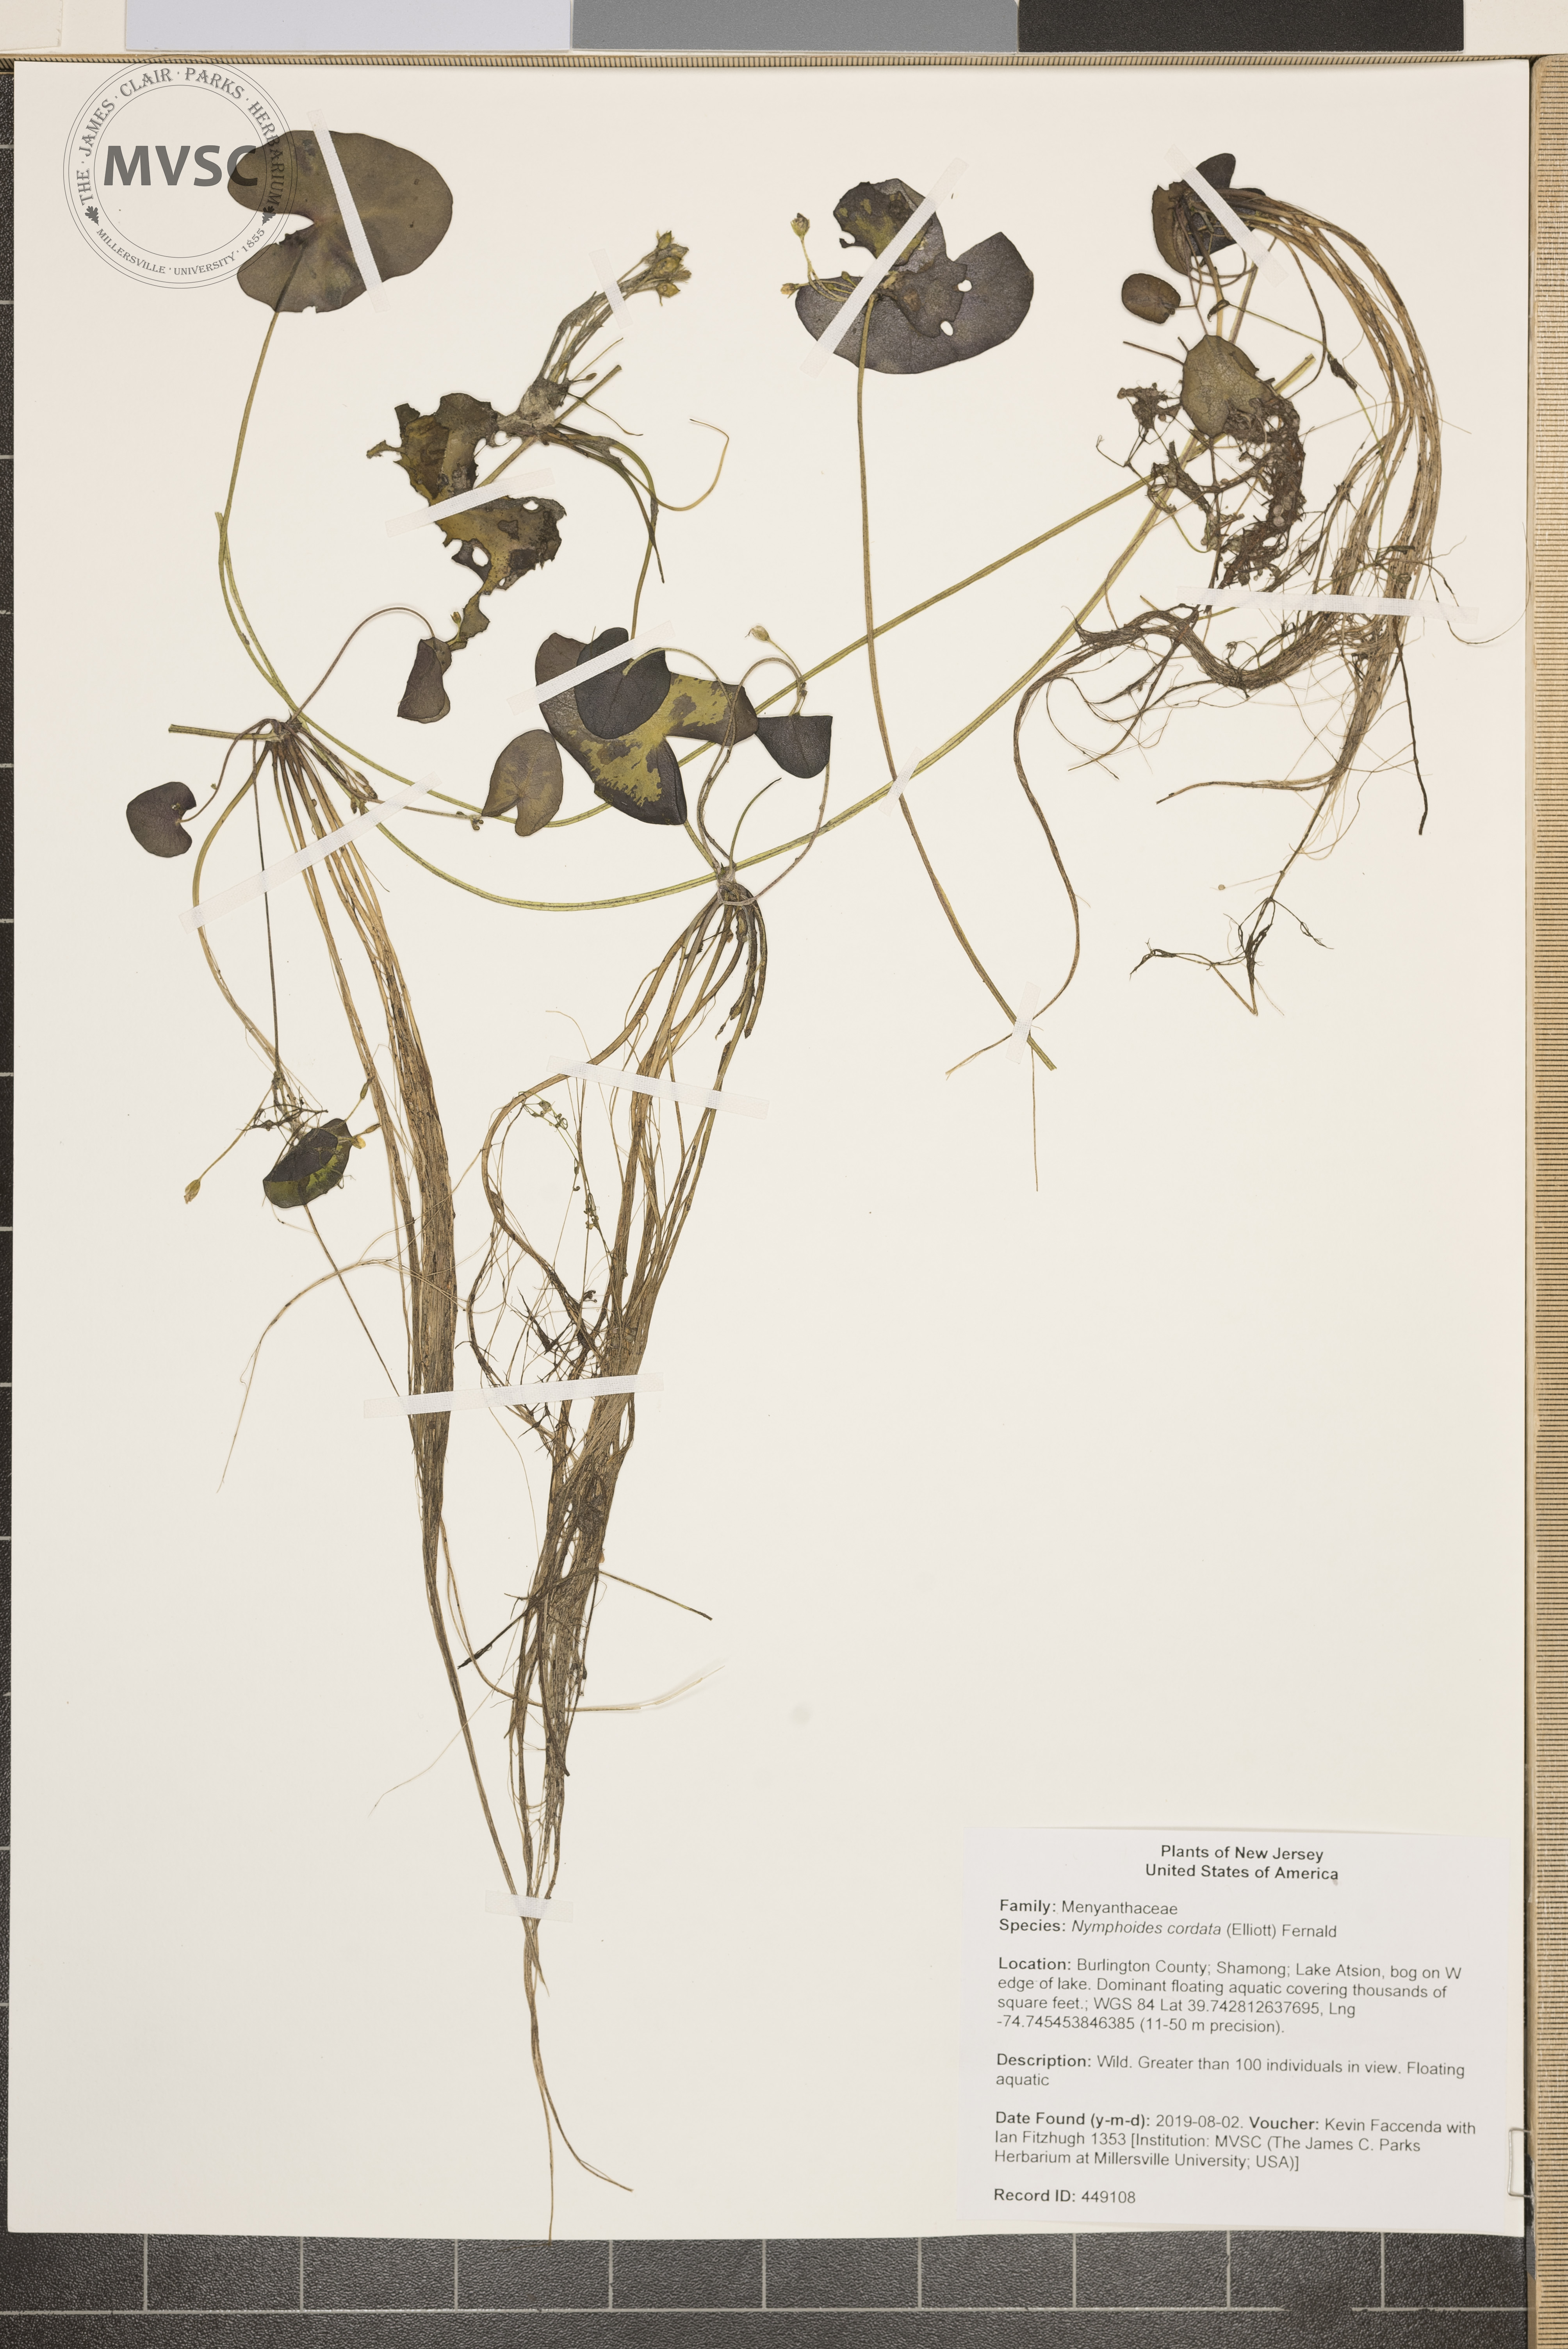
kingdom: Plantae
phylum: Tracheophyta
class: Magnoliopsida
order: Asterales
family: Menyanthaceae
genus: Nymphoides
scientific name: Nymphoides cordata
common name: Eight-angled floatingheart
